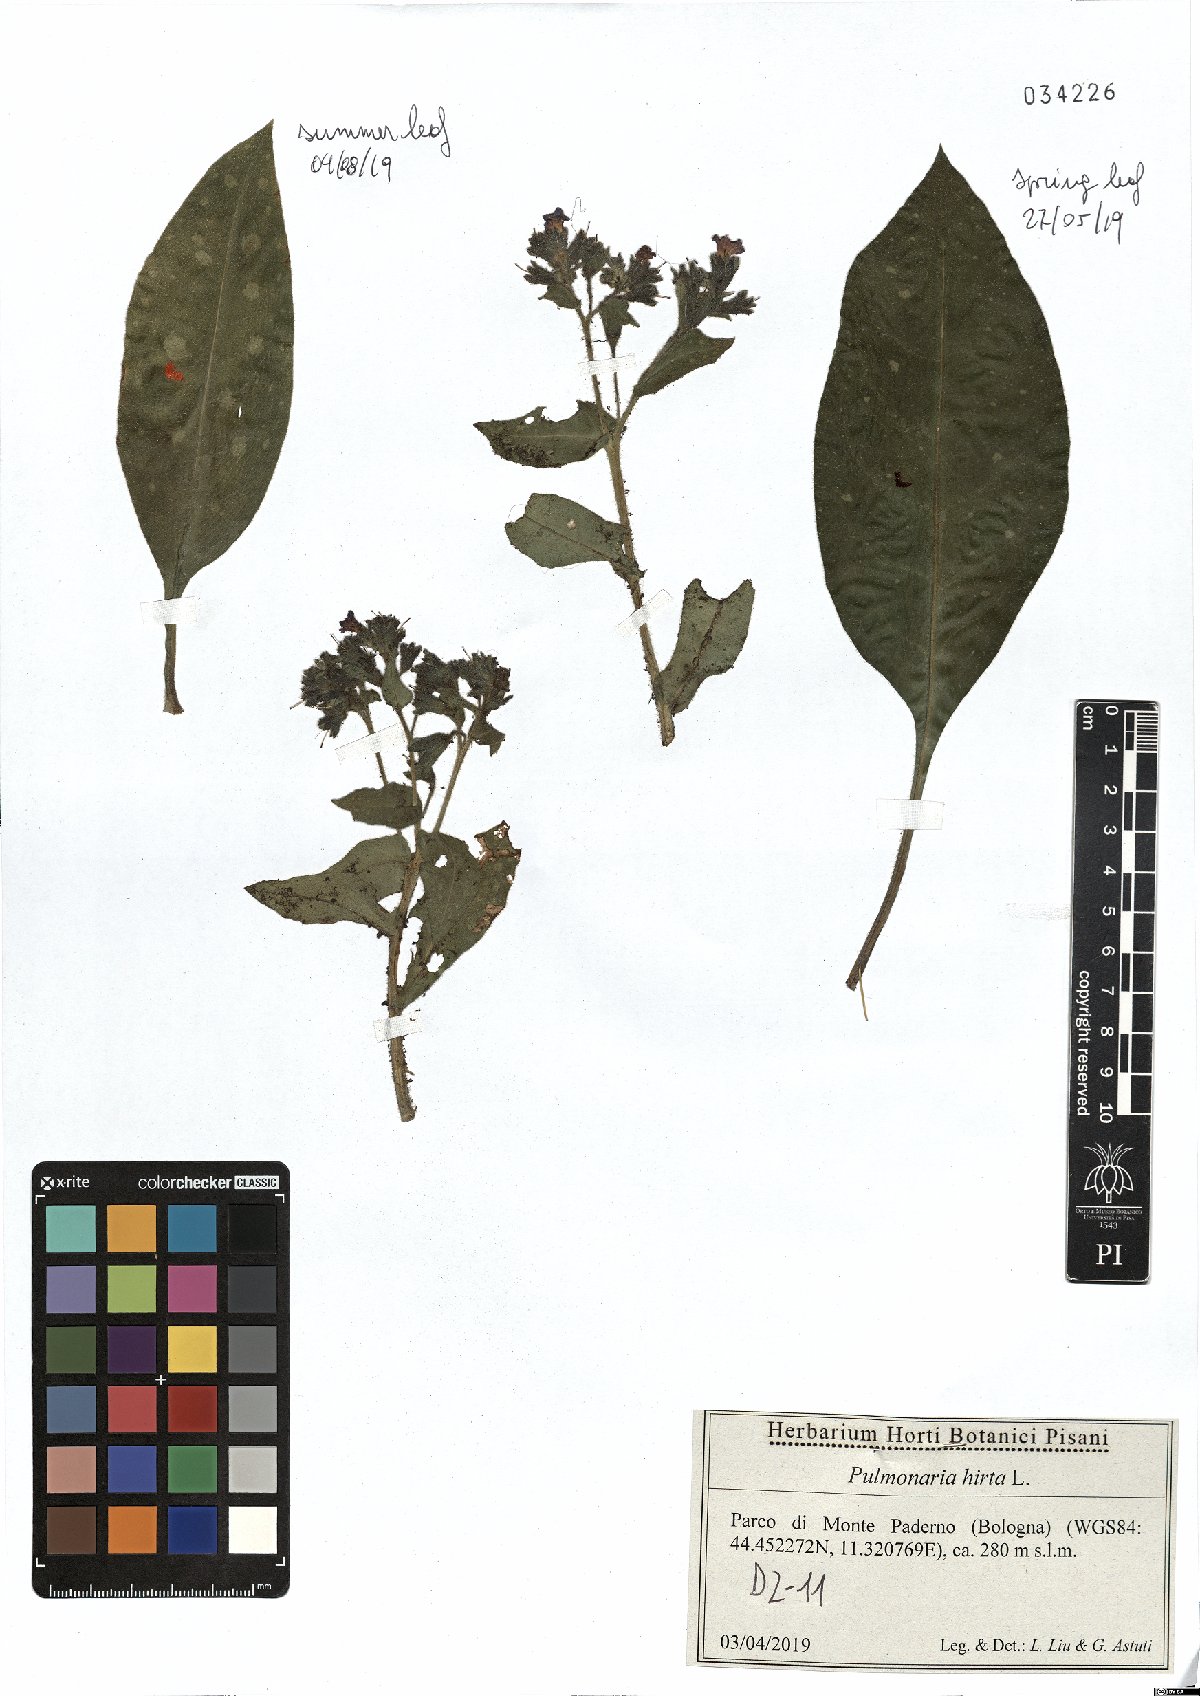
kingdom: Plantae
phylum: Tracheophyta
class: Magnoliopsida
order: Boraginales
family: Boraginaceae
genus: Pulmonaria
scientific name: Pulmonaria hirta
